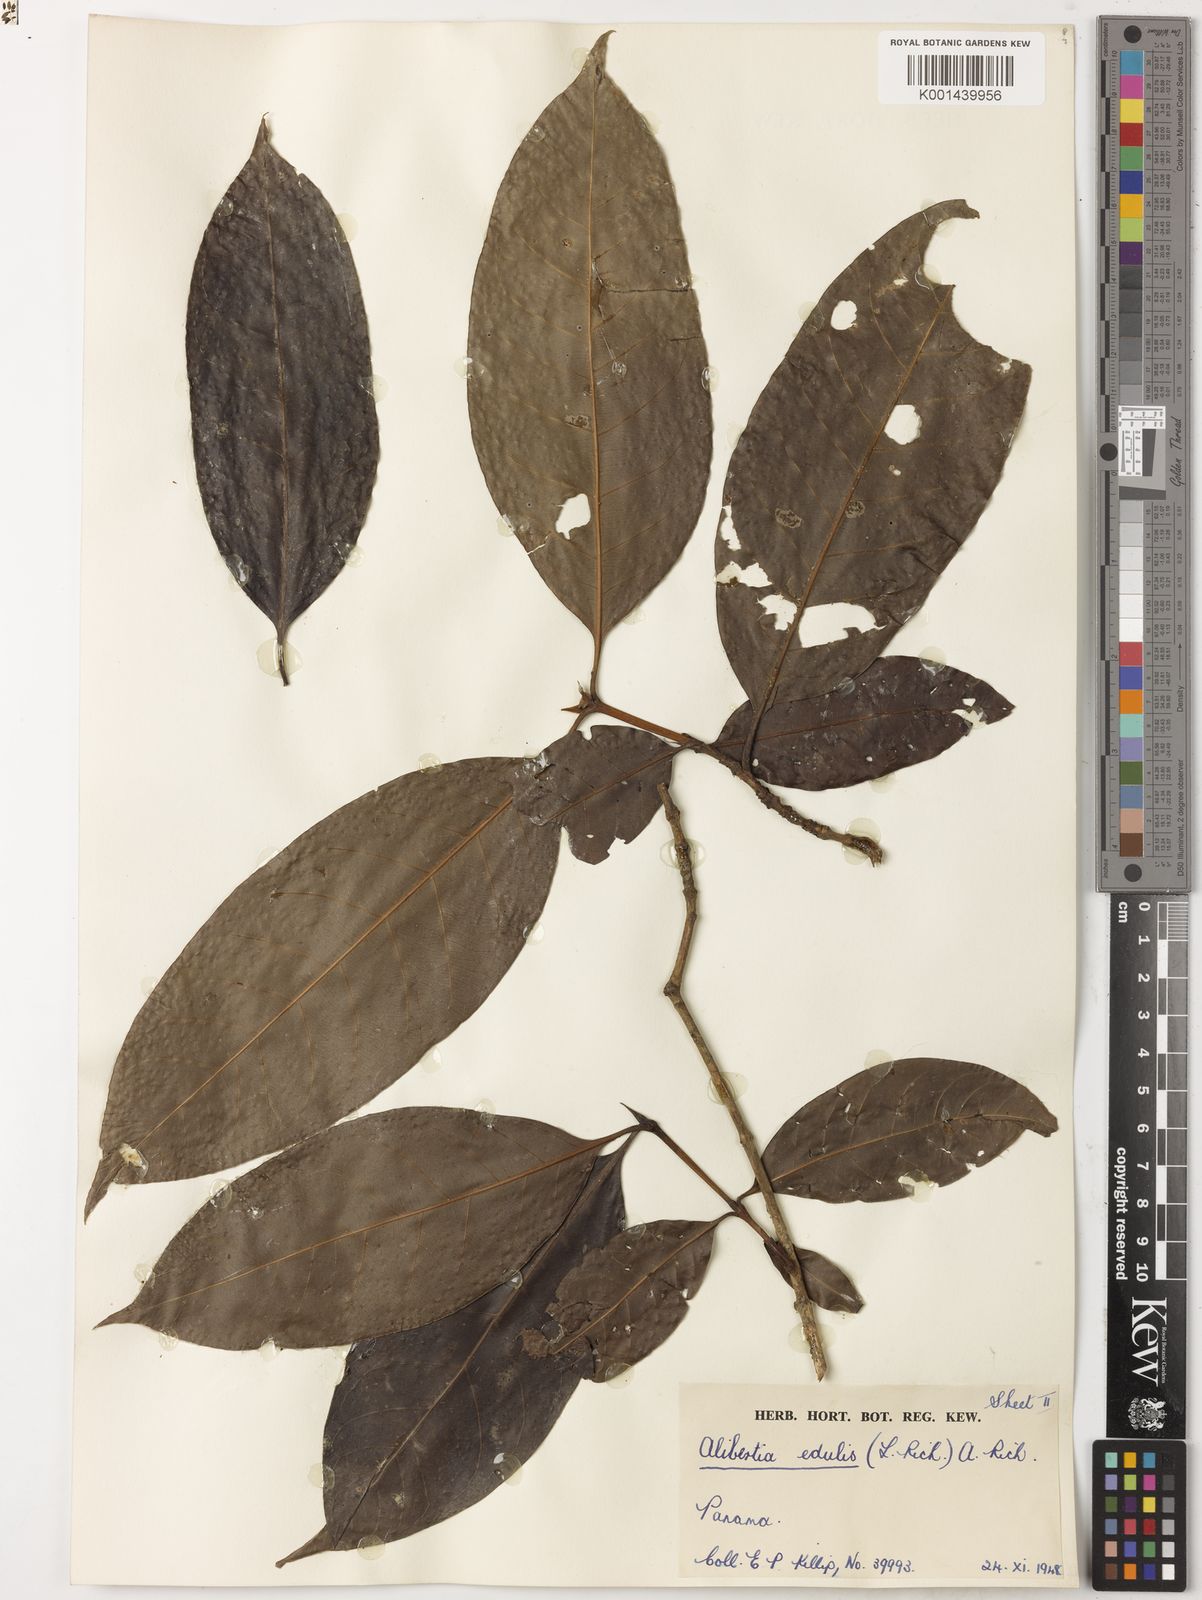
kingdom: Plantae
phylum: Tracheophyta
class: Magnoliopsida
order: Gentianales
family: Rubiaceae
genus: Alibertia
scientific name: Alibertia edulis
